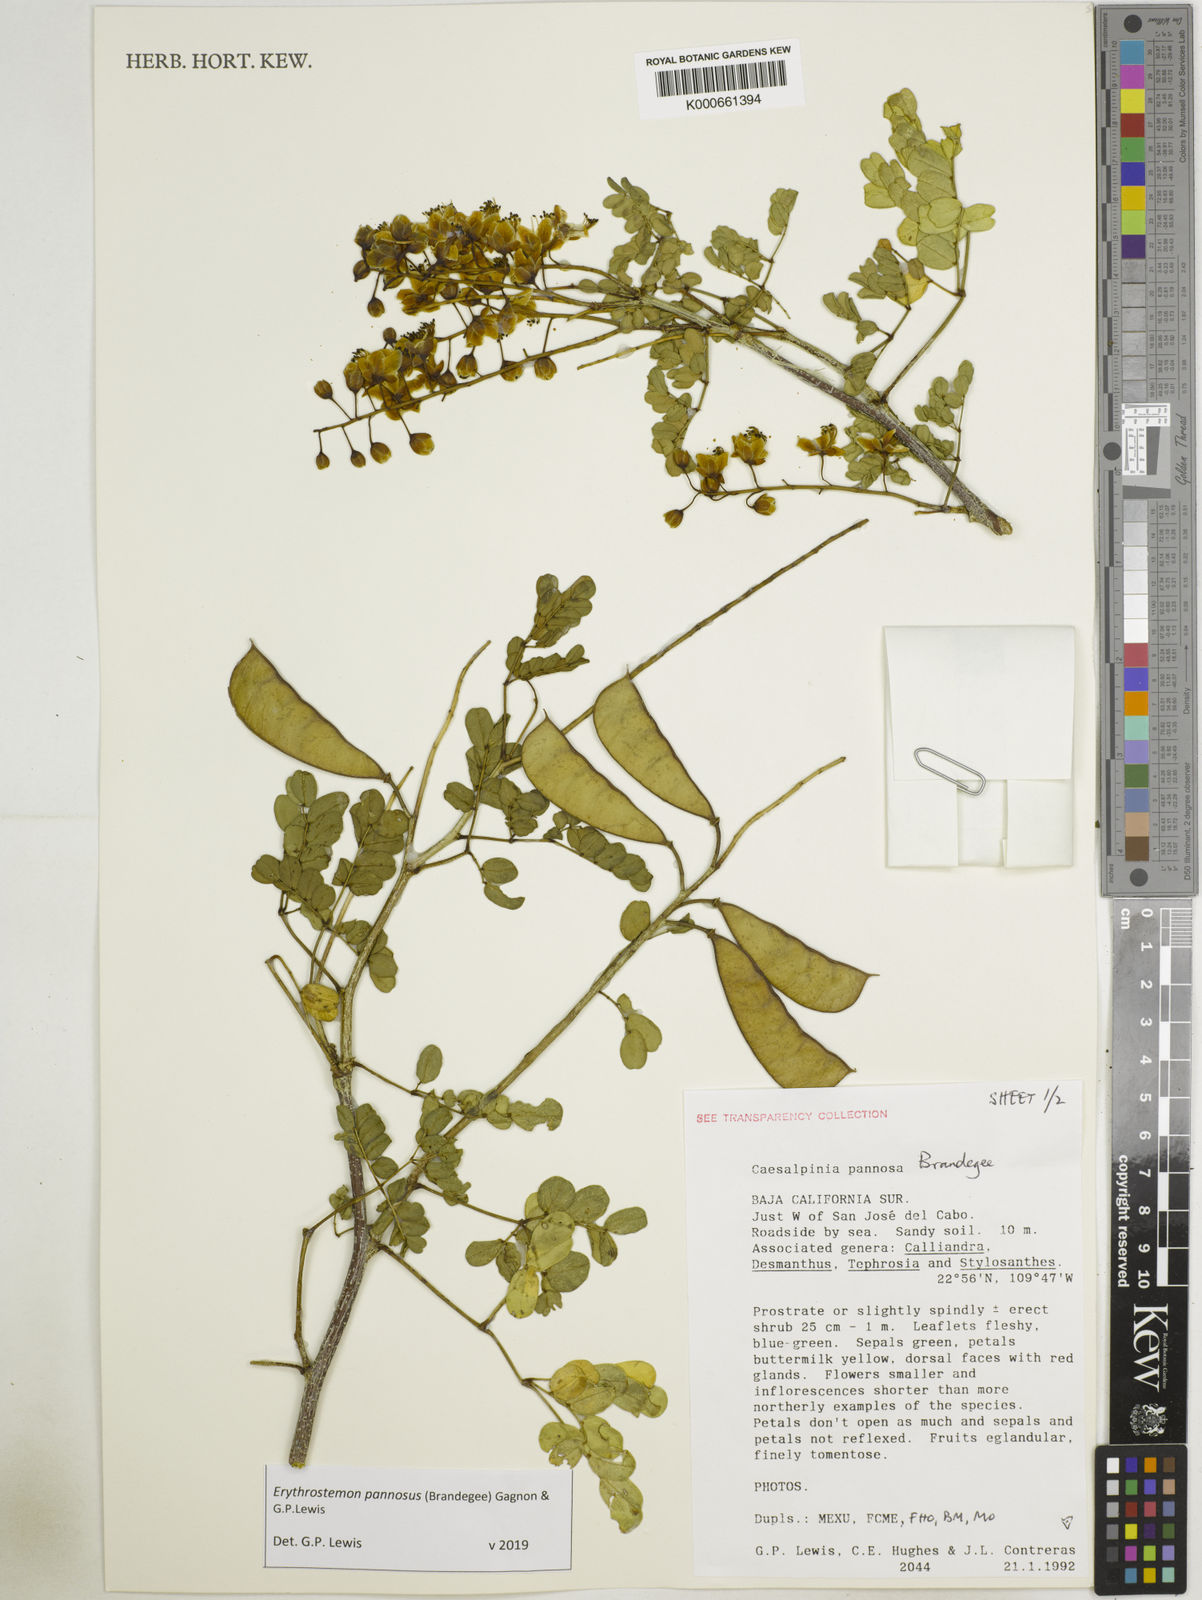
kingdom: Plantae
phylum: Tracheophyta
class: Magnoliopsida
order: Fabales
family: Fabaceae
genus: Erythrostemon
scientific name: Erythrostemon pannosus
